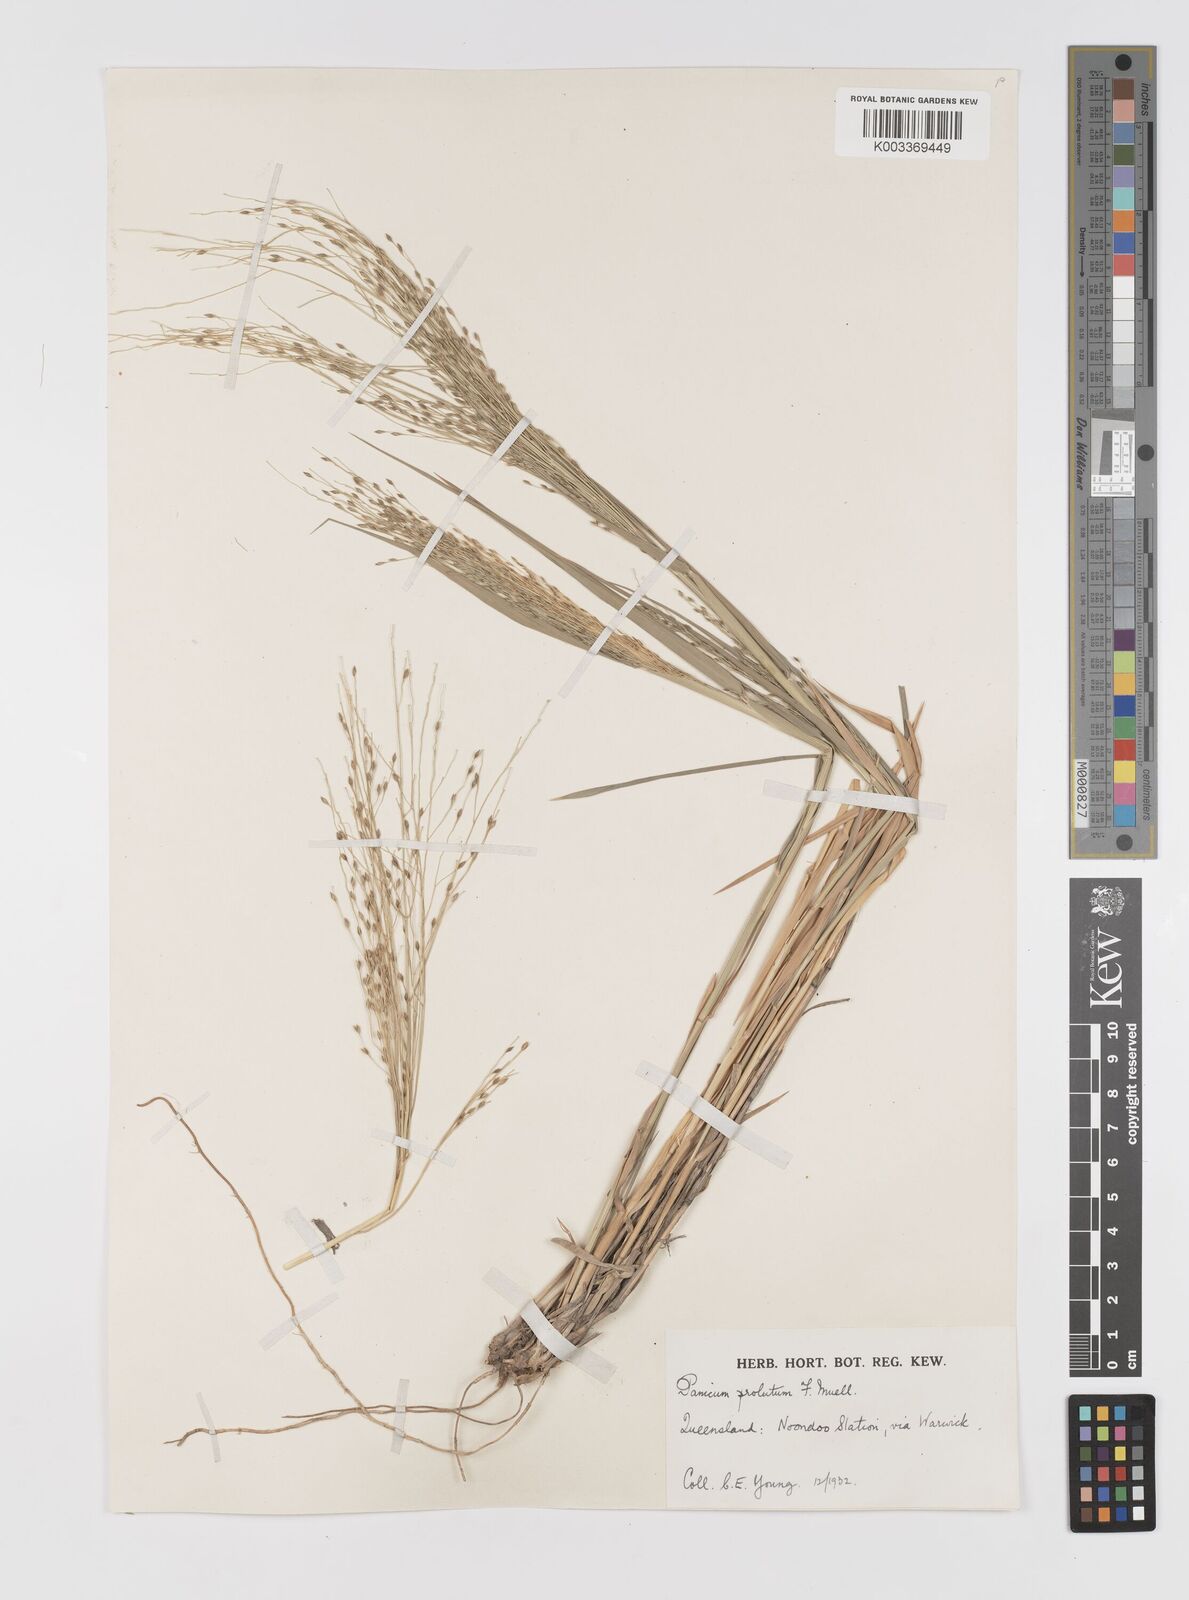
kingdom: Plantae
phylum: Tracheophyta
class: Liliopsida
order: Poales
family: Poaceae
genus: Walwhalleya
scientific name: Walwhalleya proluta
